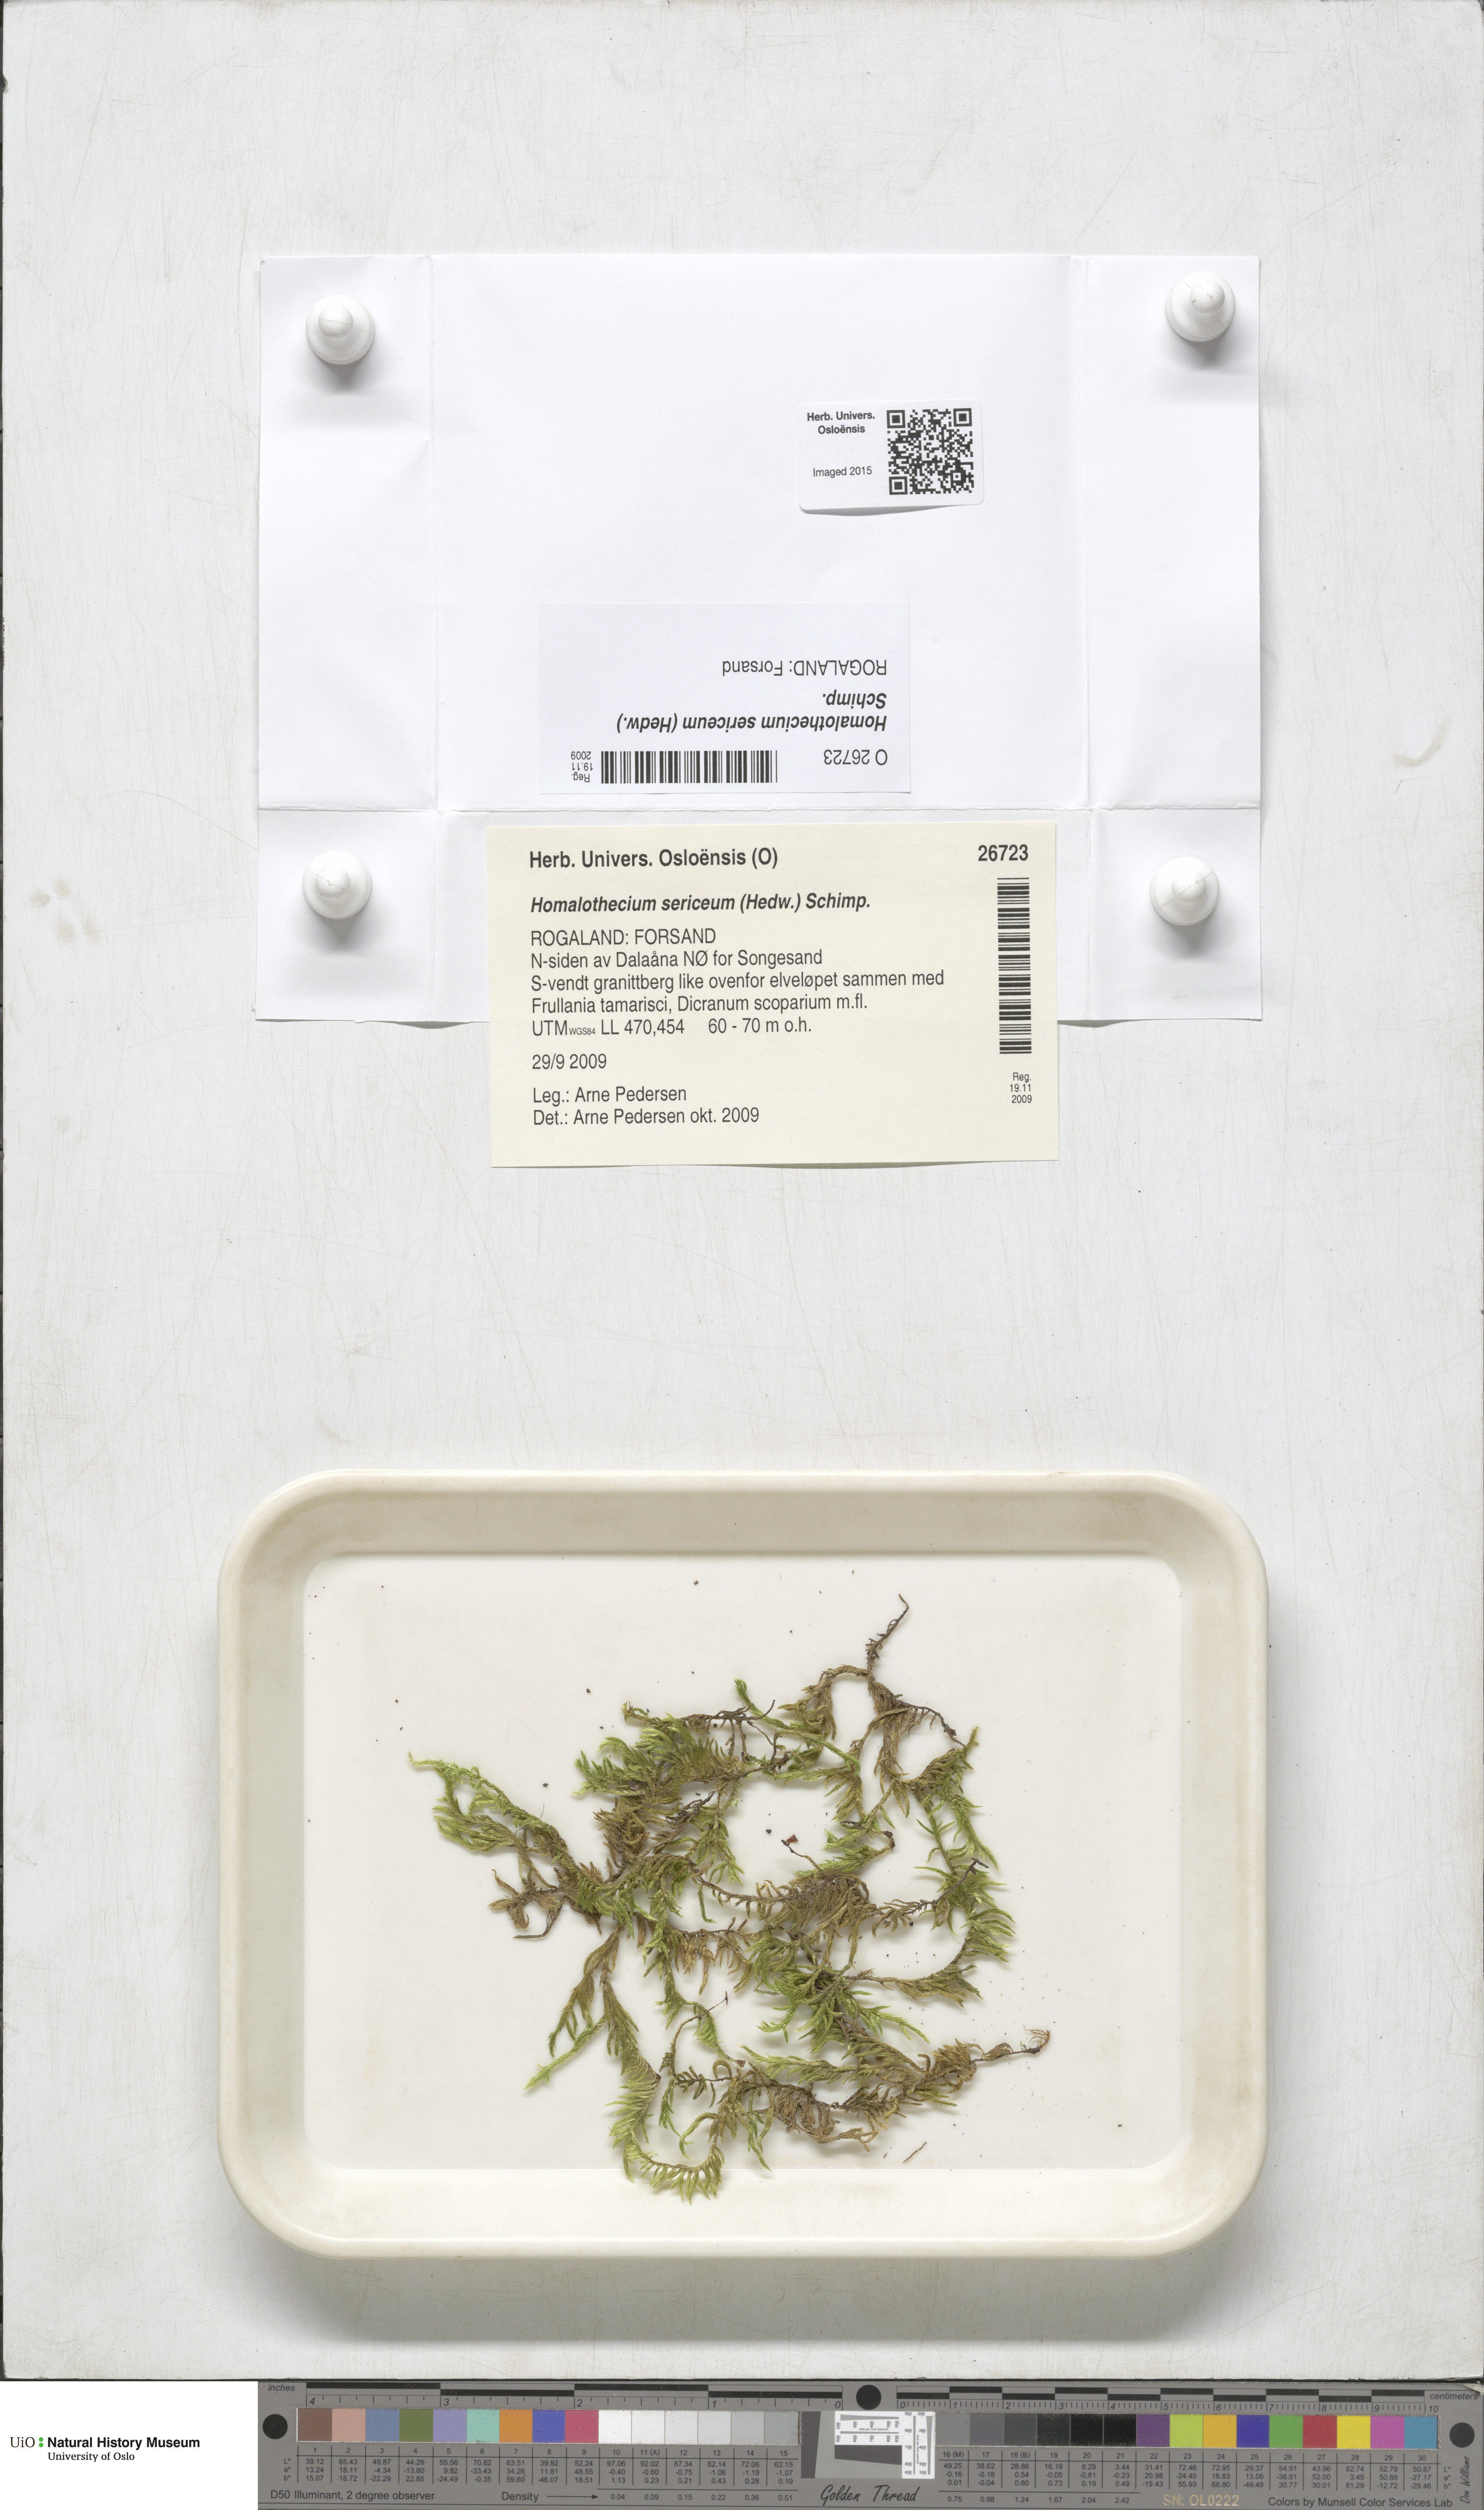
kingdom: Plantae
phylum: Bryophyta
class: Bryopsida
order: Hypnales
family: Brachytheciaceae
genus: Homalothecium
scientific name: Homalothecium sericeum
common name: Silky wall feather-moss
